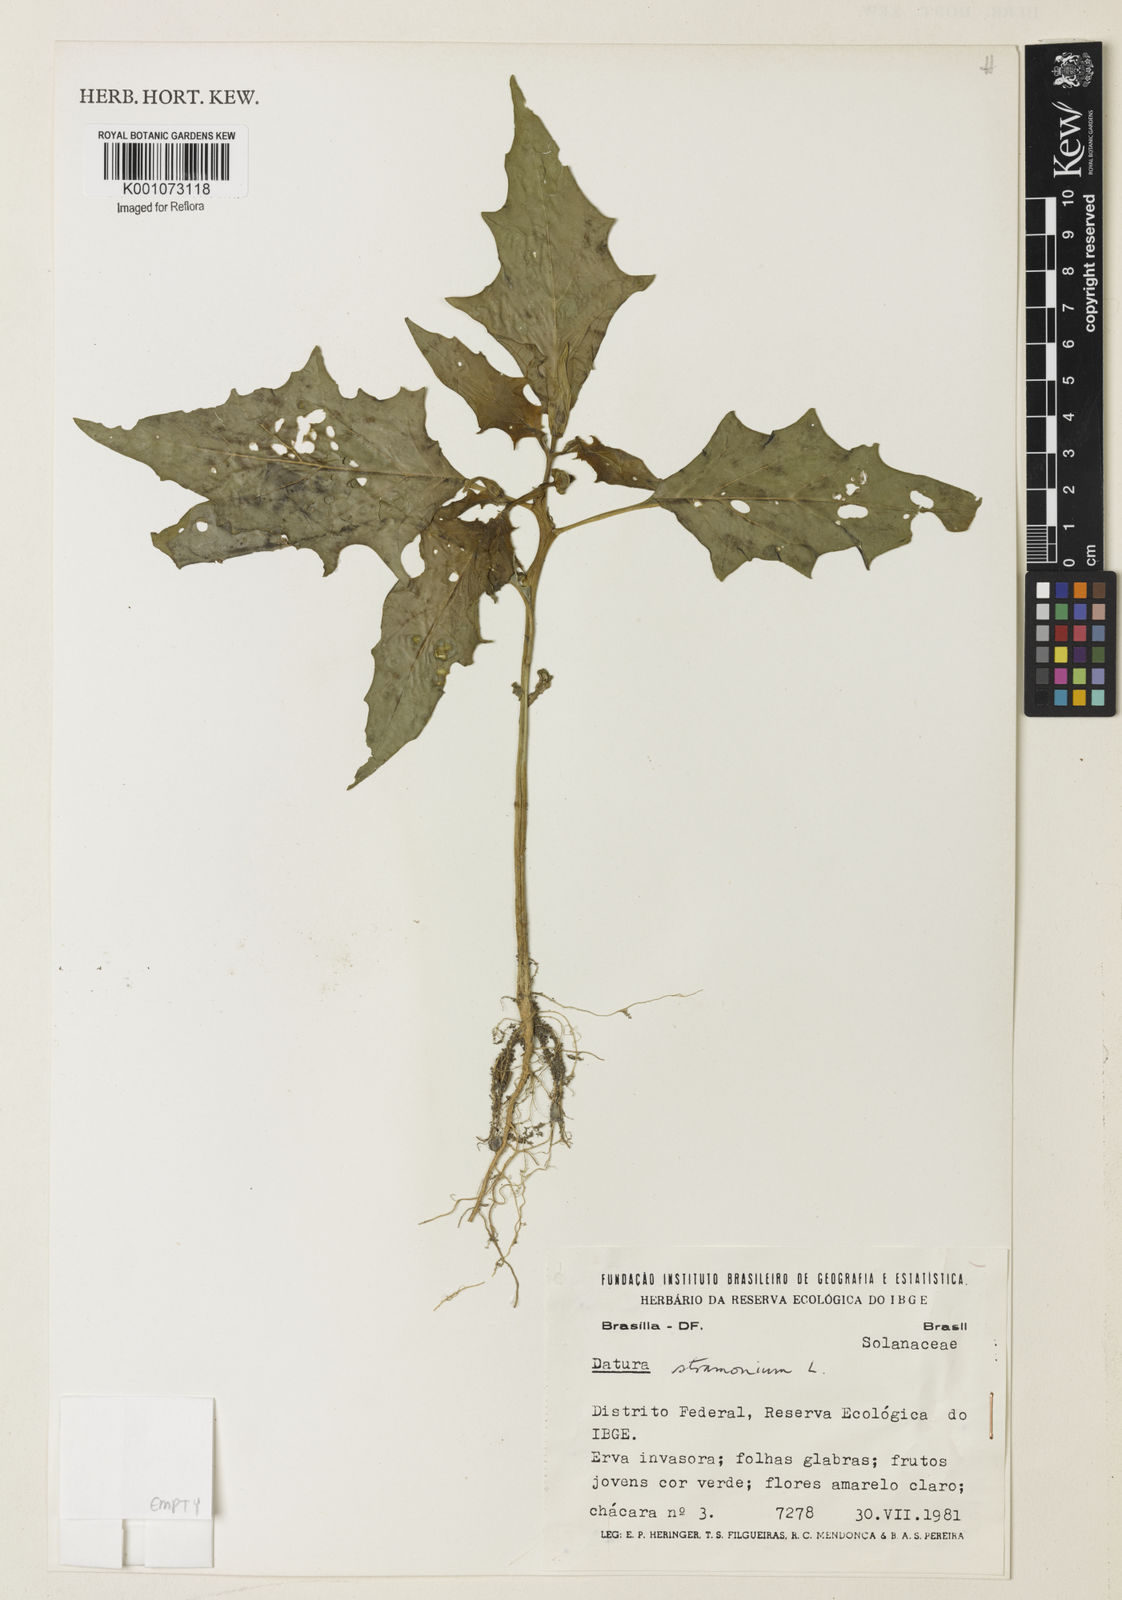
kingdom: Plantae
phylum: Tracheophyta
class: Magnoliopsida
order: Solanales
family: Solanaceae
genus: Datura
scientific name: Datura stramonium
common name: Thorn-apple
